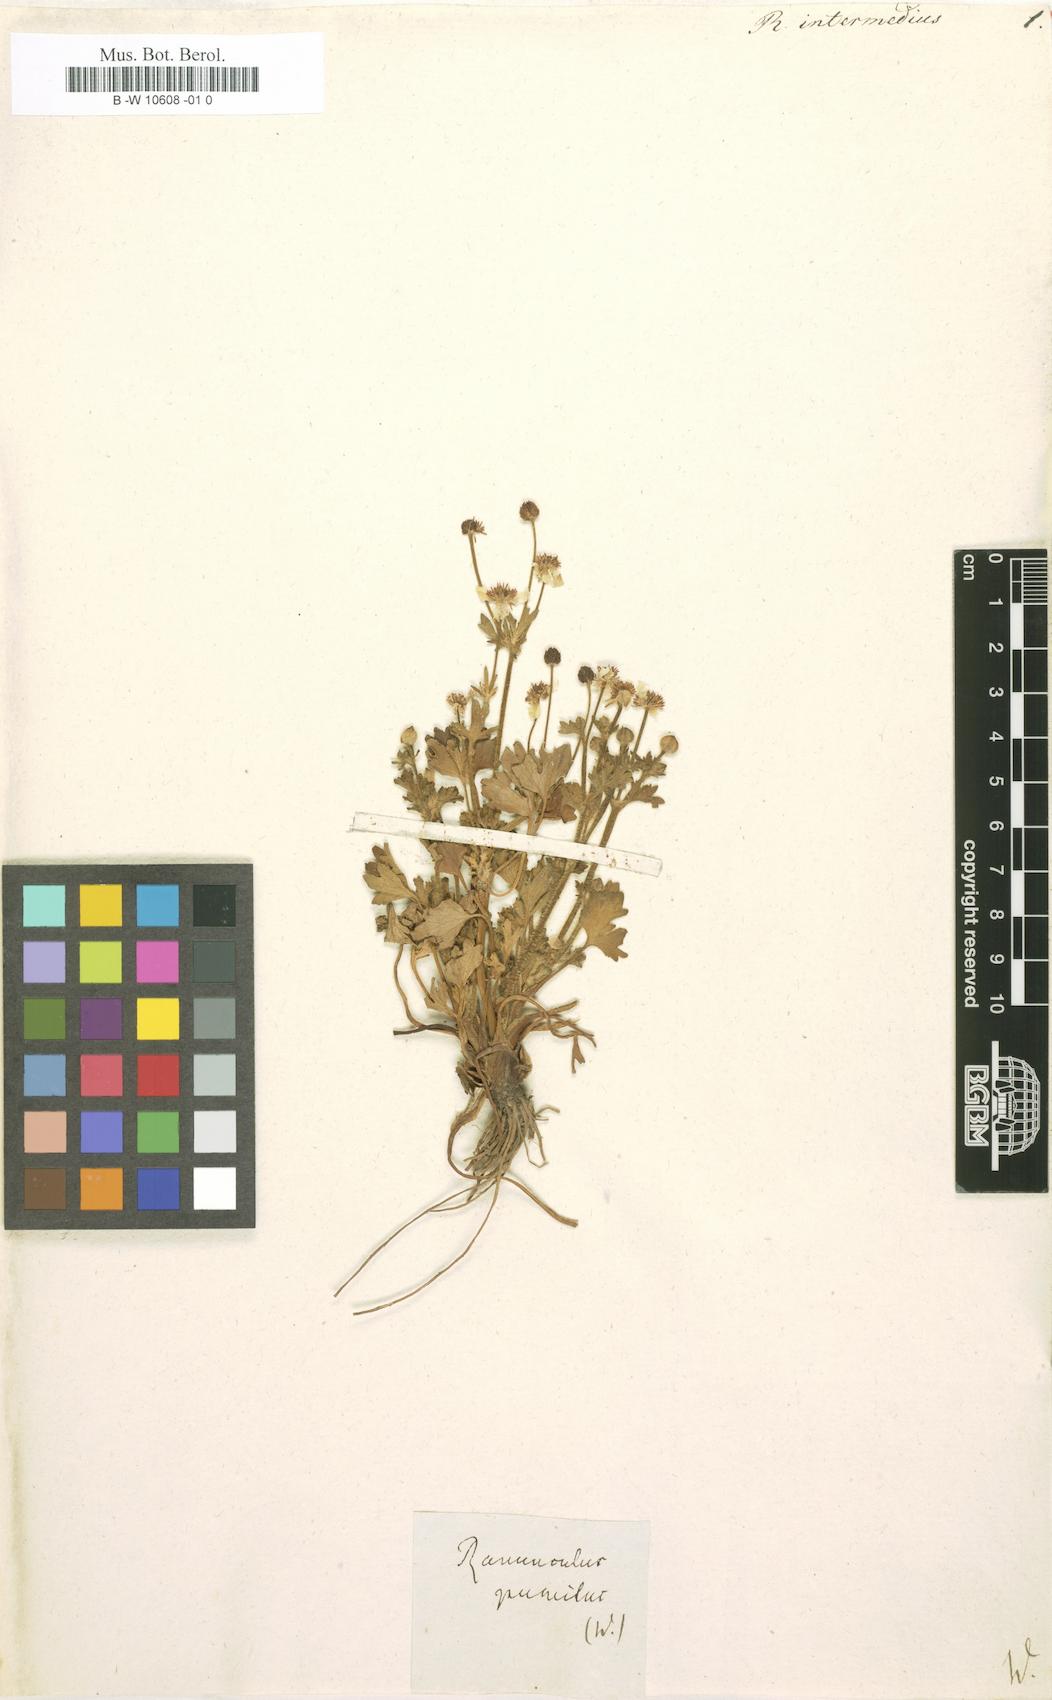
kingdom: Plantae
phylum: Tracheophyta
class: Magnoliopsida
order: Ranunculales
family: Ranunculaceae
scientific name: Ranunculaceae
